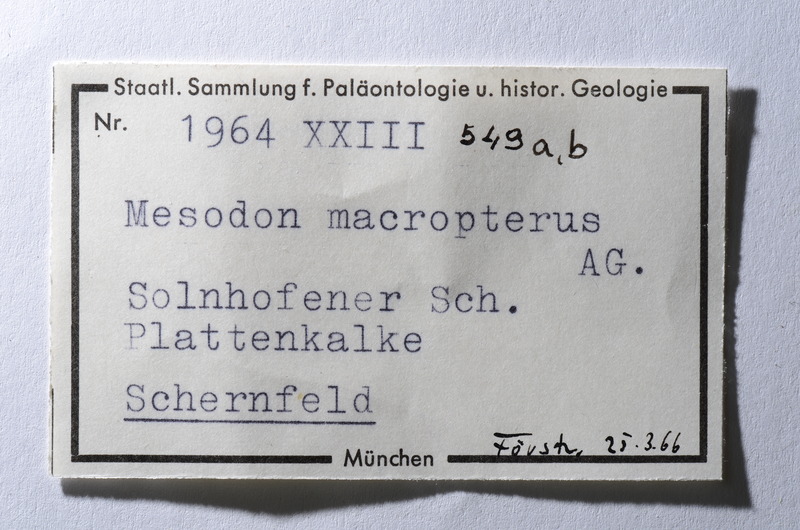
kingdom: Animalia
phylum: Chordata
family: Pycnodontes
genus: Macromesodon
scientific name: Macromesodon macropterus
